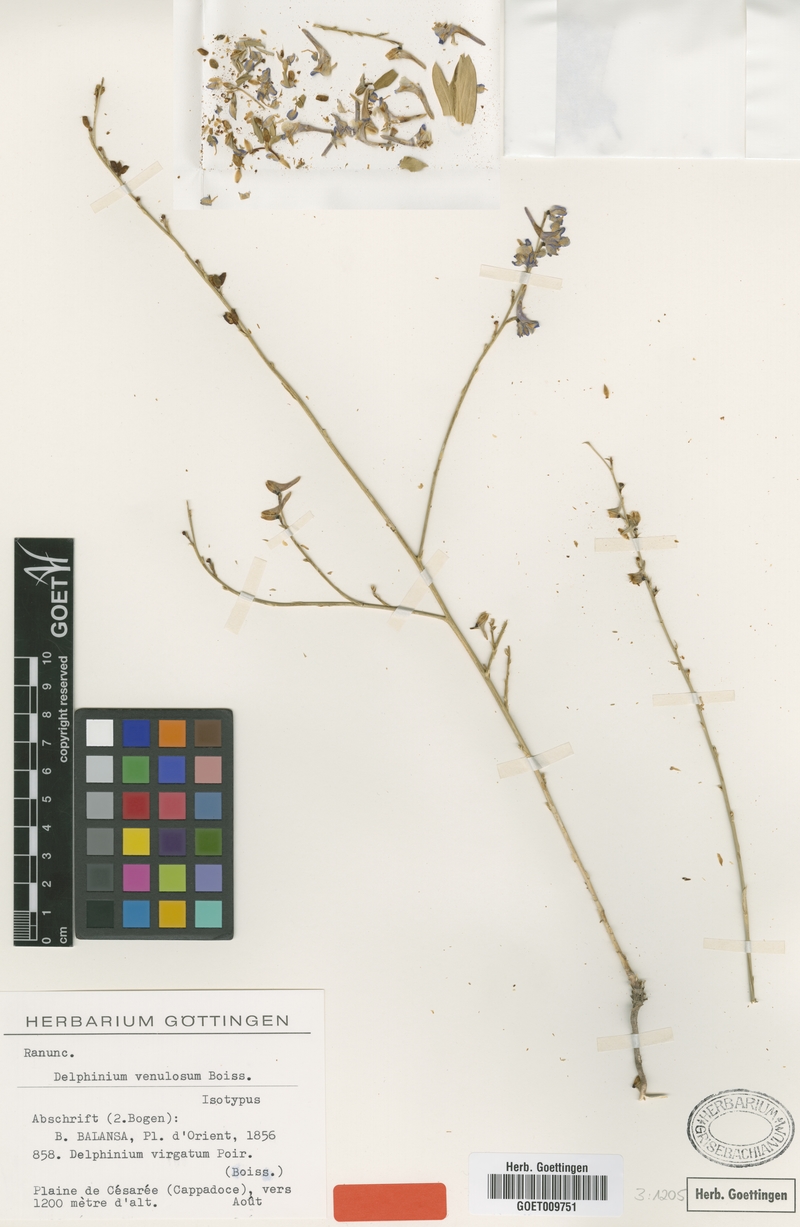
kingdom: Plantae
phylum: Tracheophyta
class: Magnoliopsida
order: Ranunculales
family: Ranunculaceae
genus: Delphinium
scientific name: Delphinium venulosum
